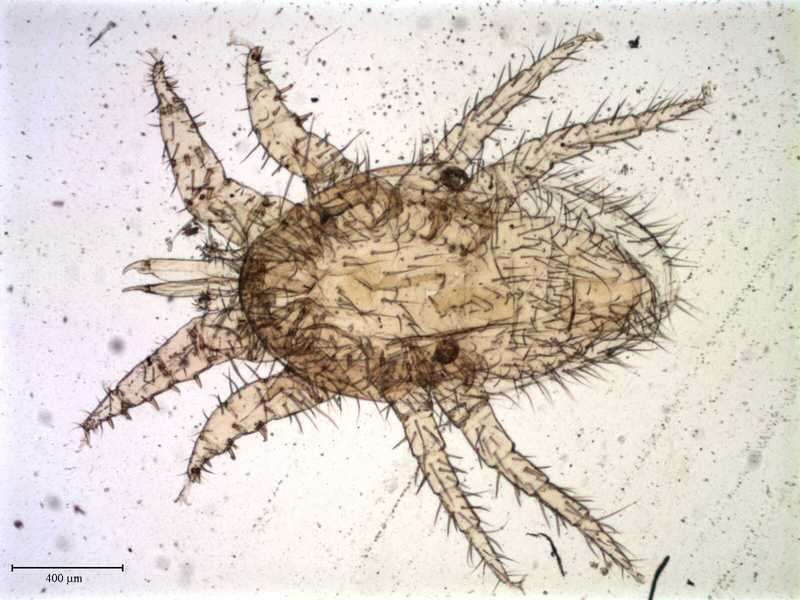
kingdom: Animalia
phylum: Arthropoda
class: Arachnida
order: Mesostigmata
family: Laelapidae
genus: Dinogamasus
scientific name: Dinogamasus
